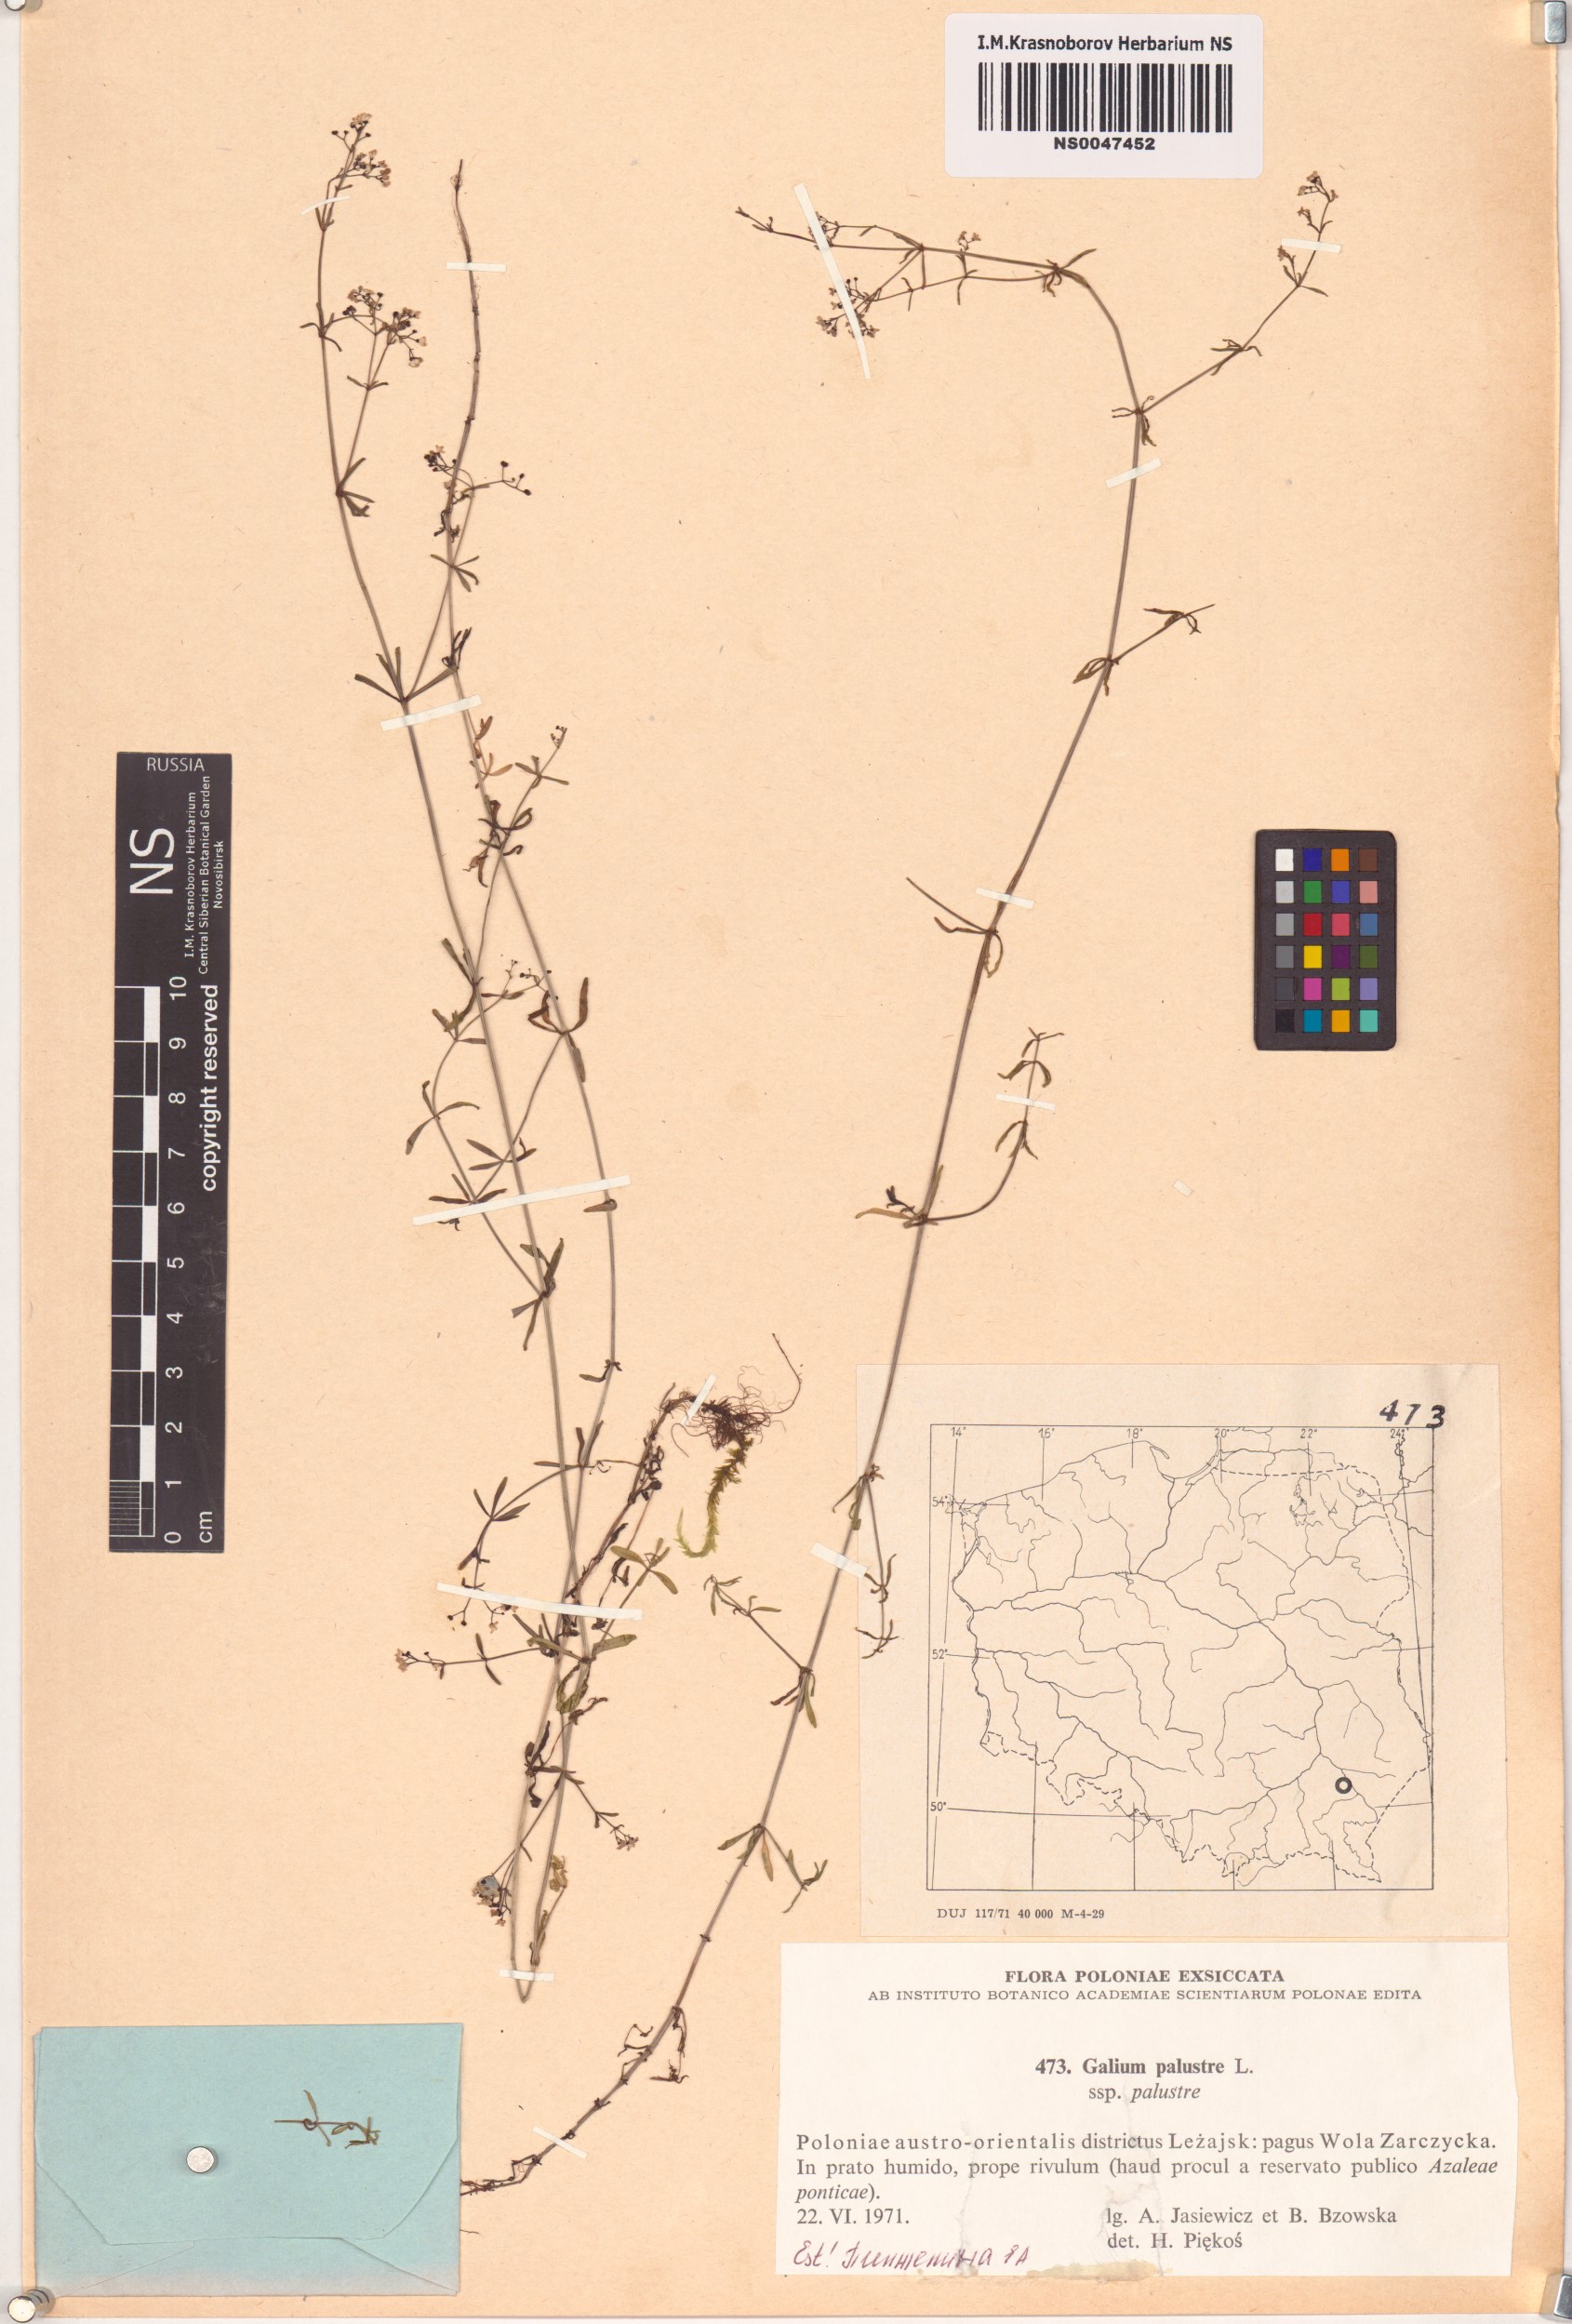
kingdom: Plantae
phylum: Tracheophyta
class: Magnoliopsida
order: Gentianales
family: Rubiaceae
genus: Galium
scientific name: Galium palustre
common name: Common marsh-bedstraw
